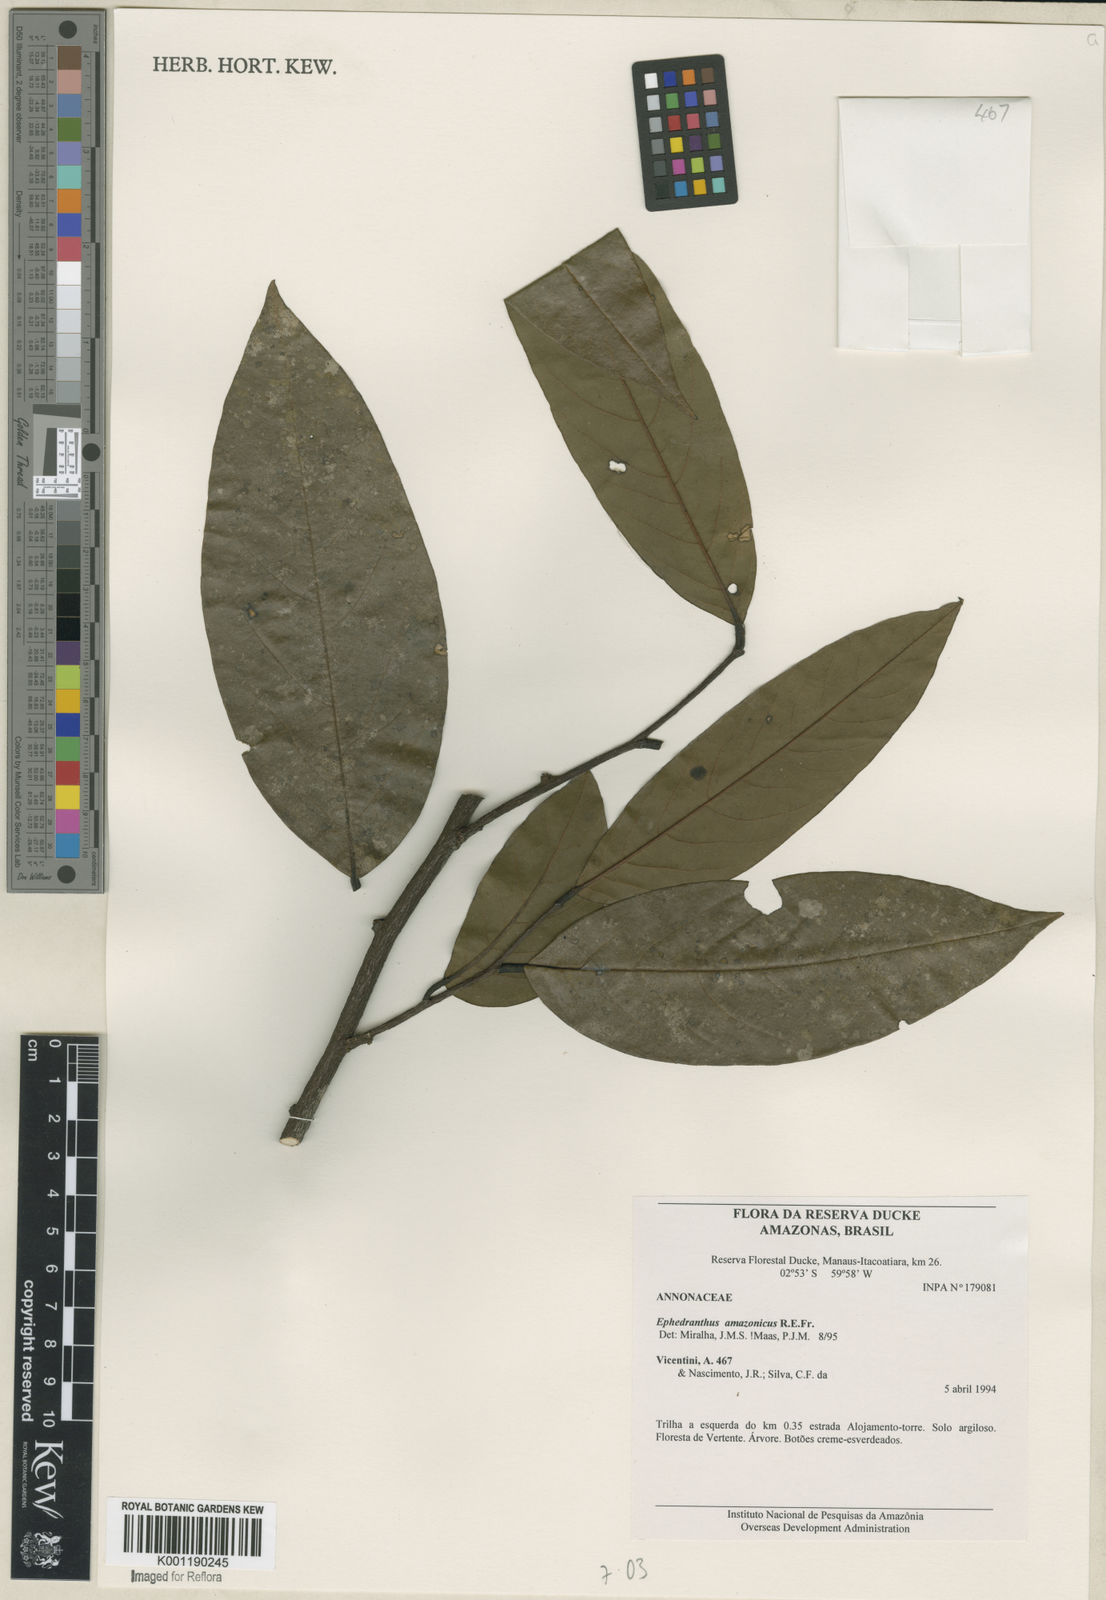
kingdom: Plantae
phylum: Tracheophyta
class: Magnoliopsida
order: Magnoliales
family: Annonaceae
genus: Ephedranthus
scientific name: Ephedranthus amazonicus
